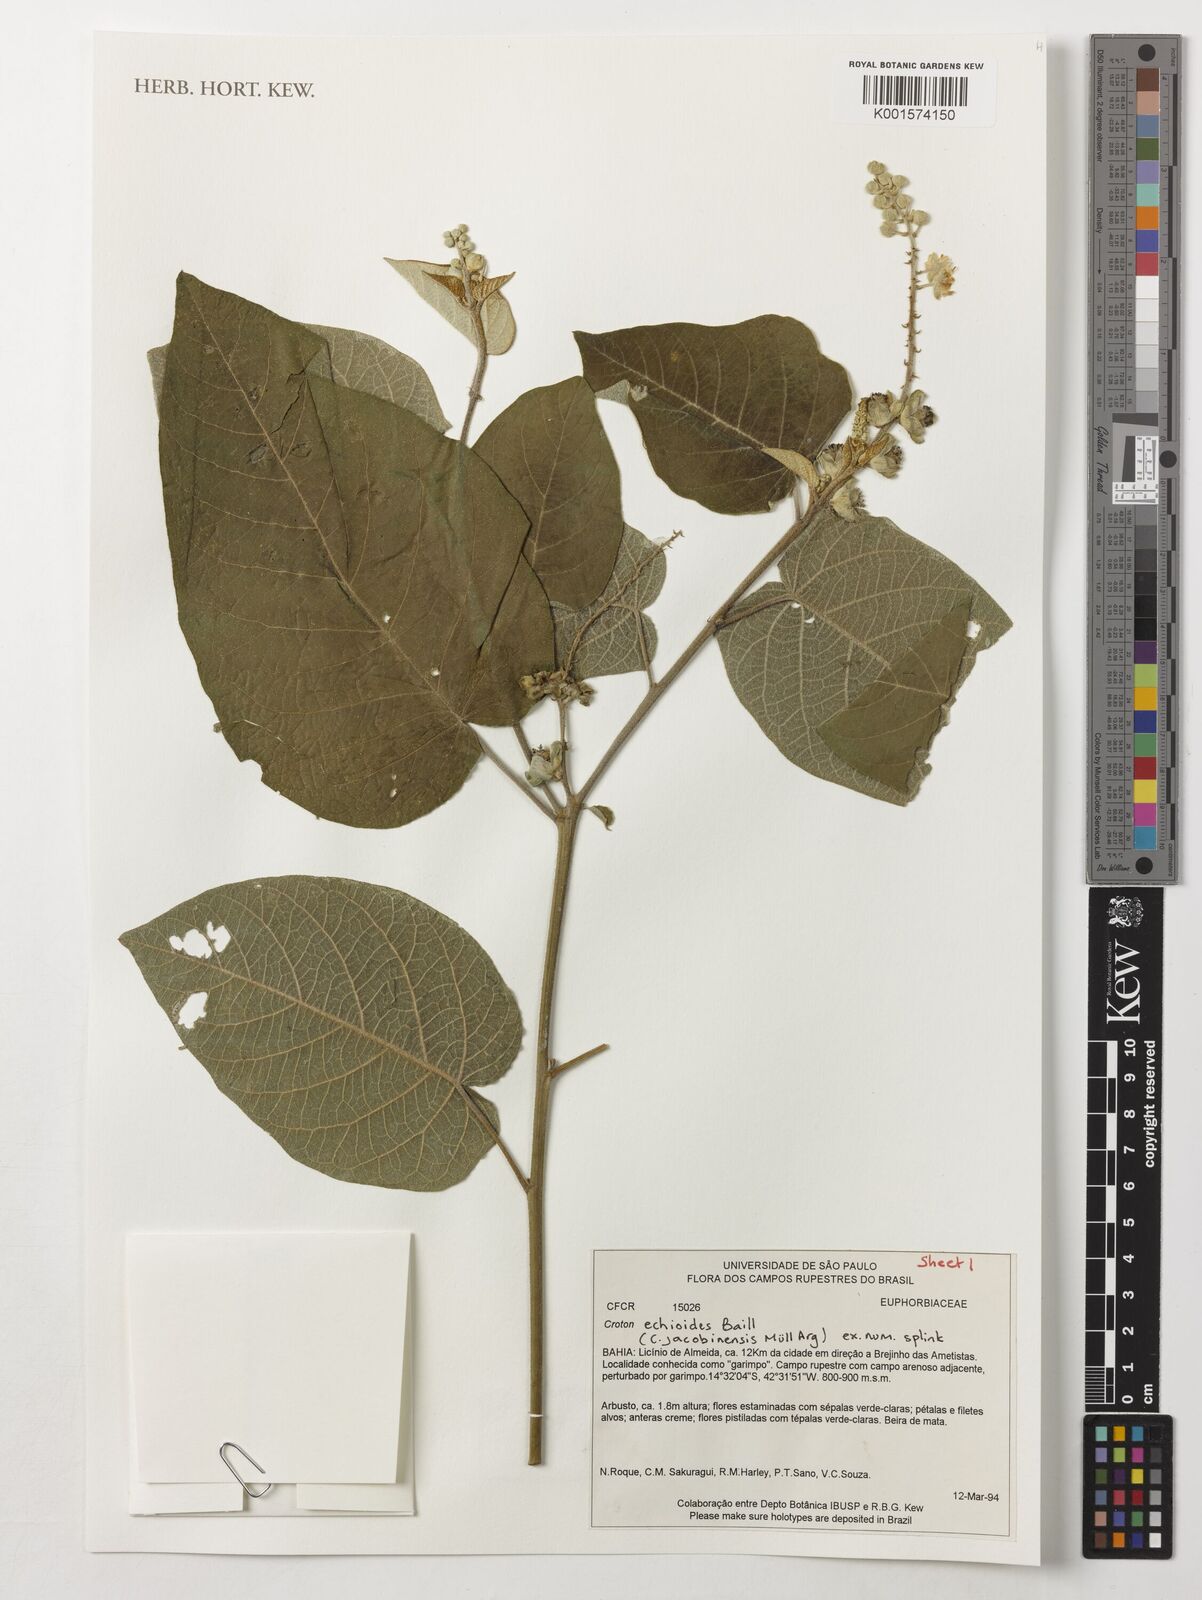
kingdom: Plantae
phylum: Tracheophyta
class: Magnoliopsida
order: Malpighiales
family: Euphorbiaceae
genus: Croton
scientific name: Croton echioideus
